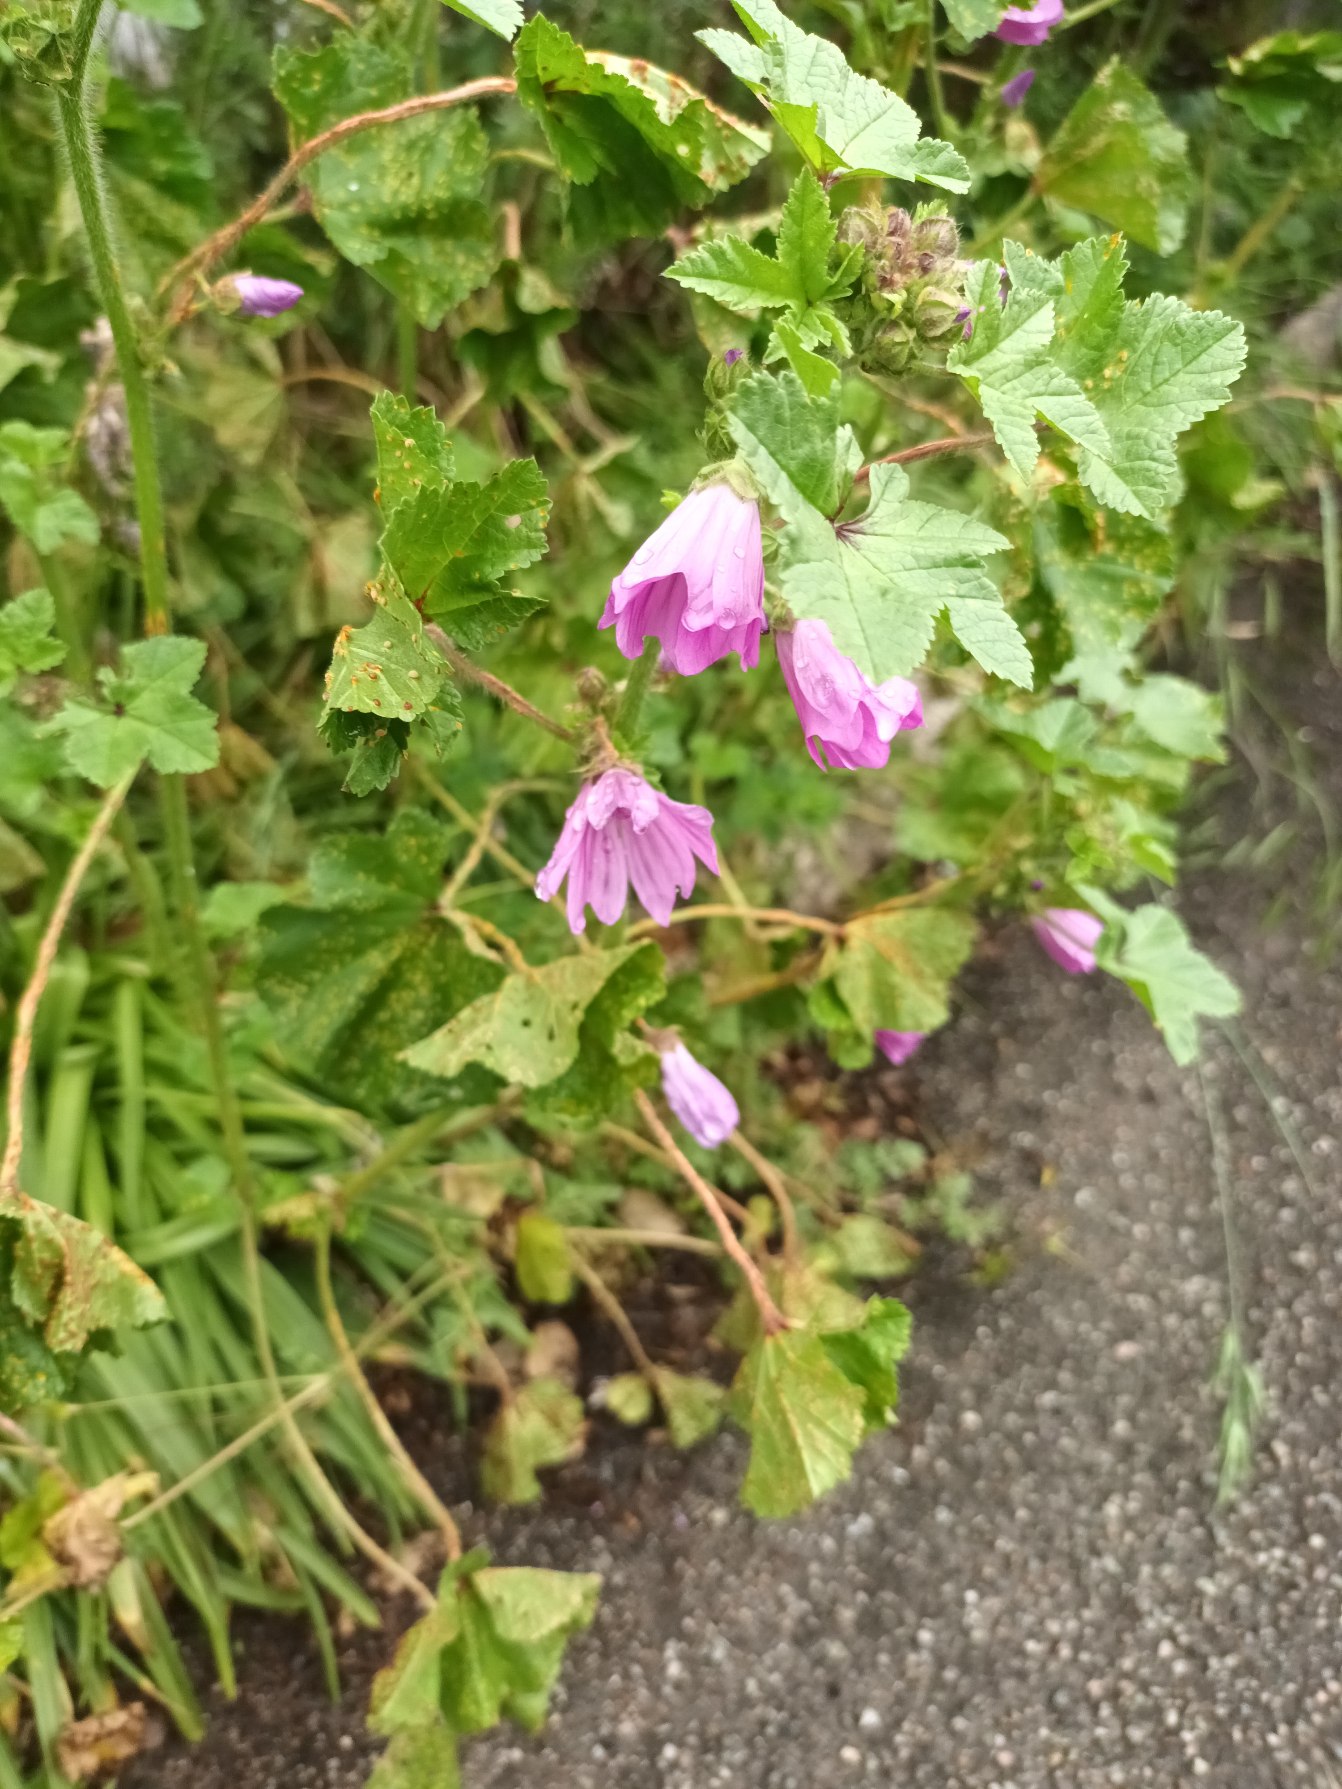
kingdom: Plantae
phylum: Tracheophyta
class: Magnoliopsida
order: Malvales
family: Malvaceae
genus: Malva
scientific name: Malva sylvestris
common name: Almindelig katost
